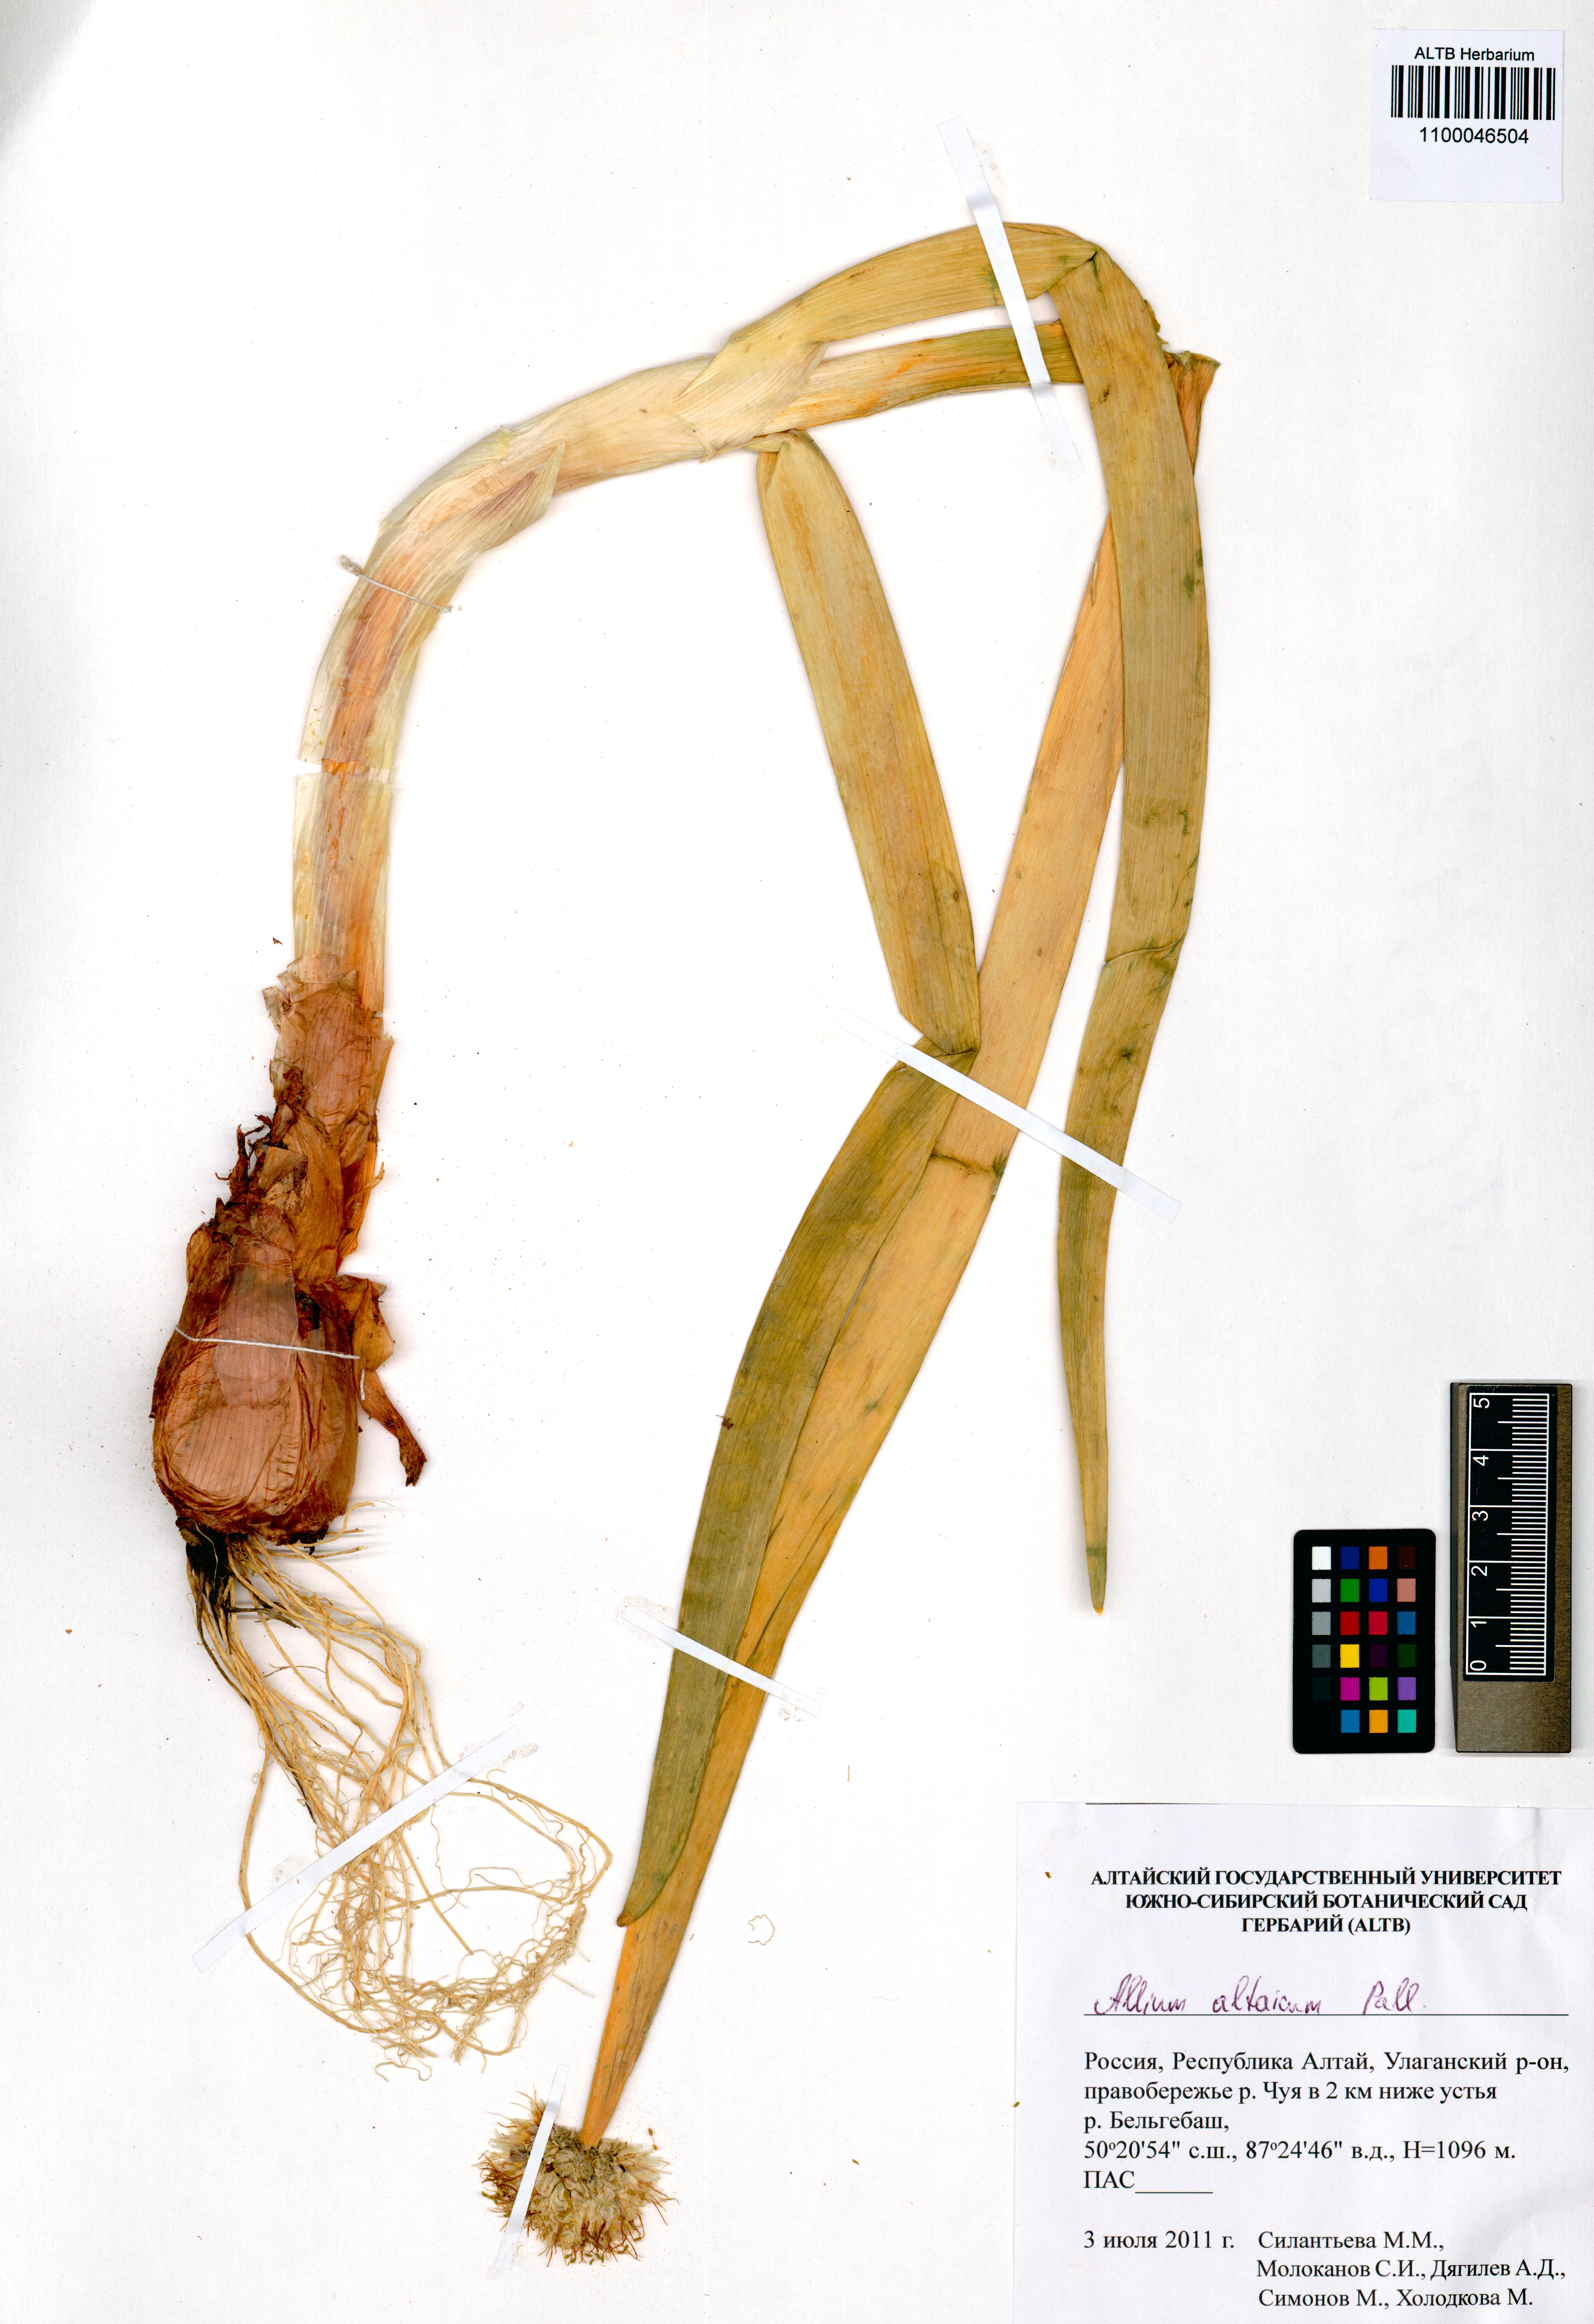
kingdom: Plantae
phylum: Tracheophyta
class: Liliopsida
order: Asparagales
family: Amaryllidaceae
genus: Allium
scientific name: Allium altaicum
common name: Altai onion
